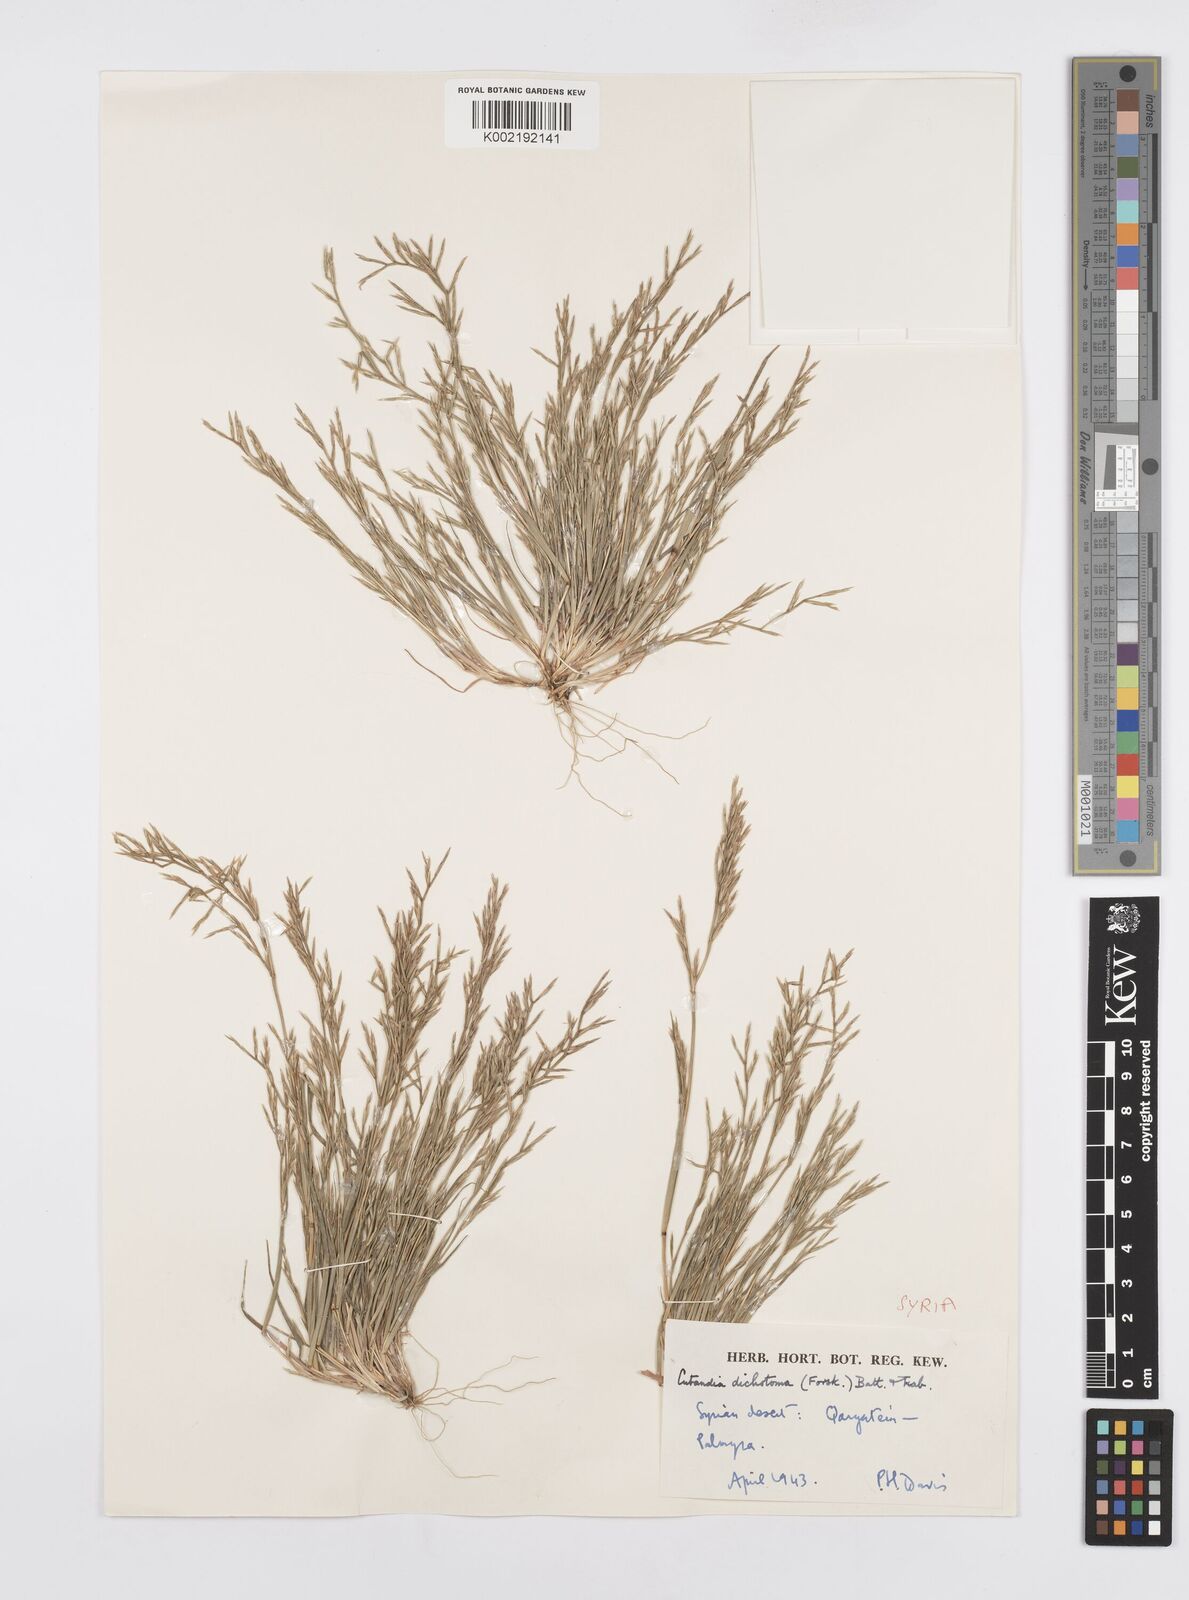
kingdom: Plantae
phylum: Tracheophyta
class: Liliopsida
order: Poales
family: Poaceae
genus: Cutandia
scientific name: Cutandia dichotoma
